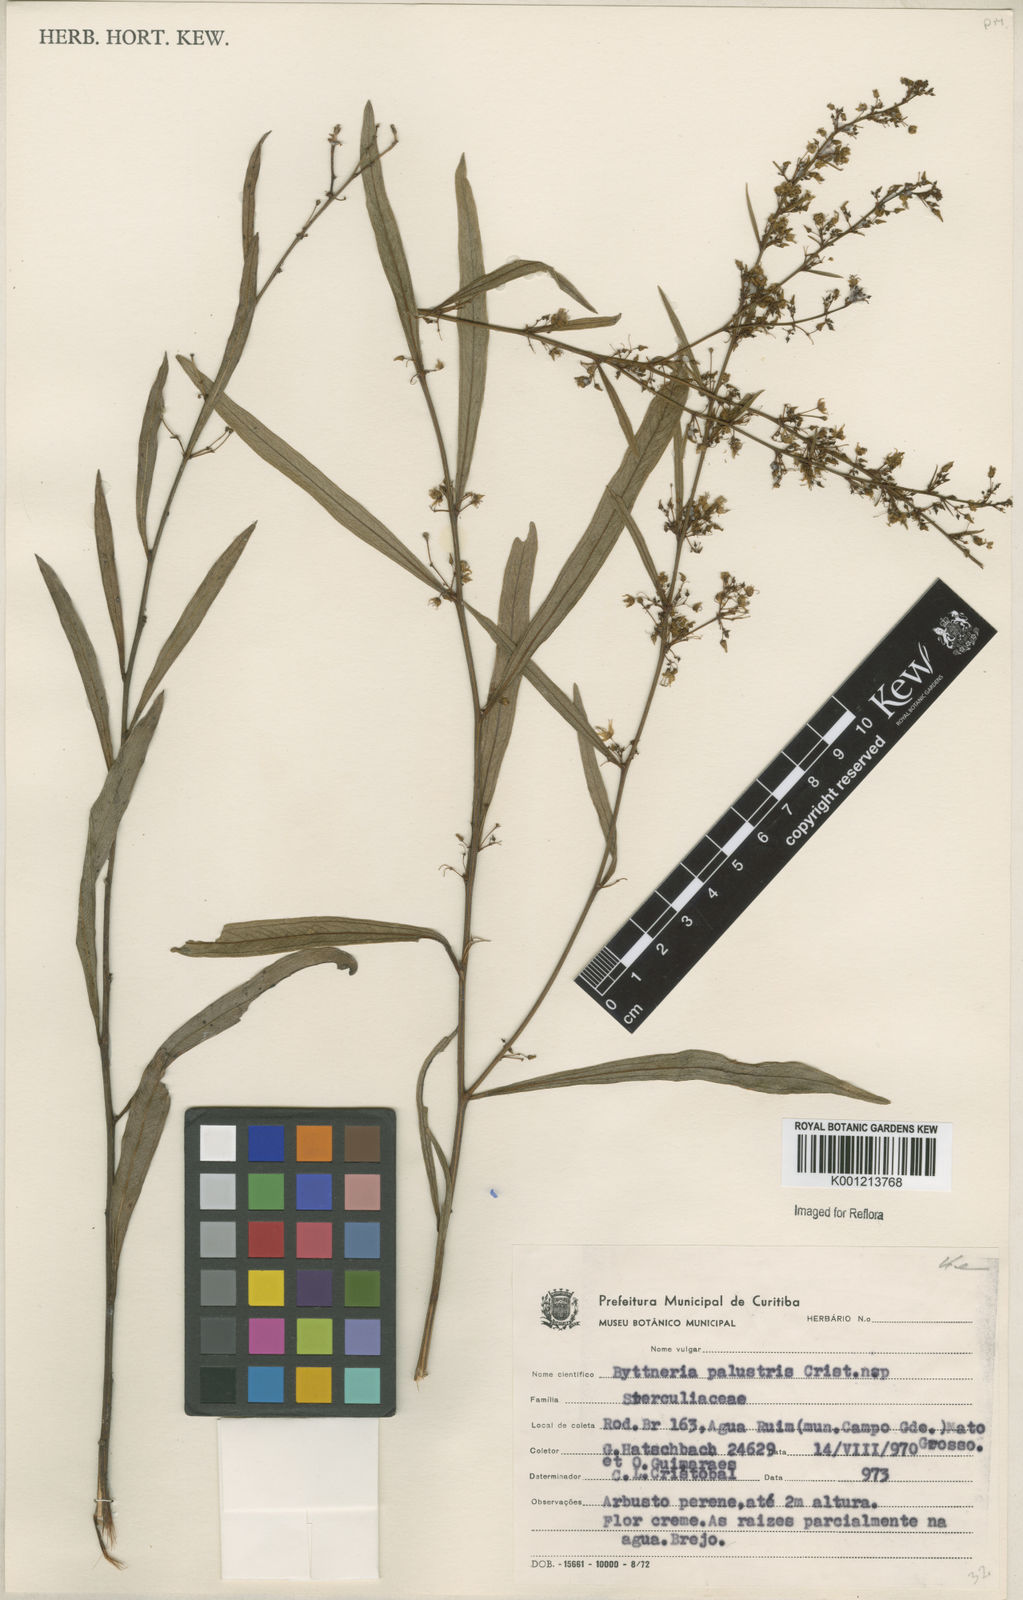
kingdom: Plantae
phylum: Tracheophyta
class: Magnoliopsida
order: Malvales
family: Malvaceae
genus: Byttneria
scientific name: Byttneria
